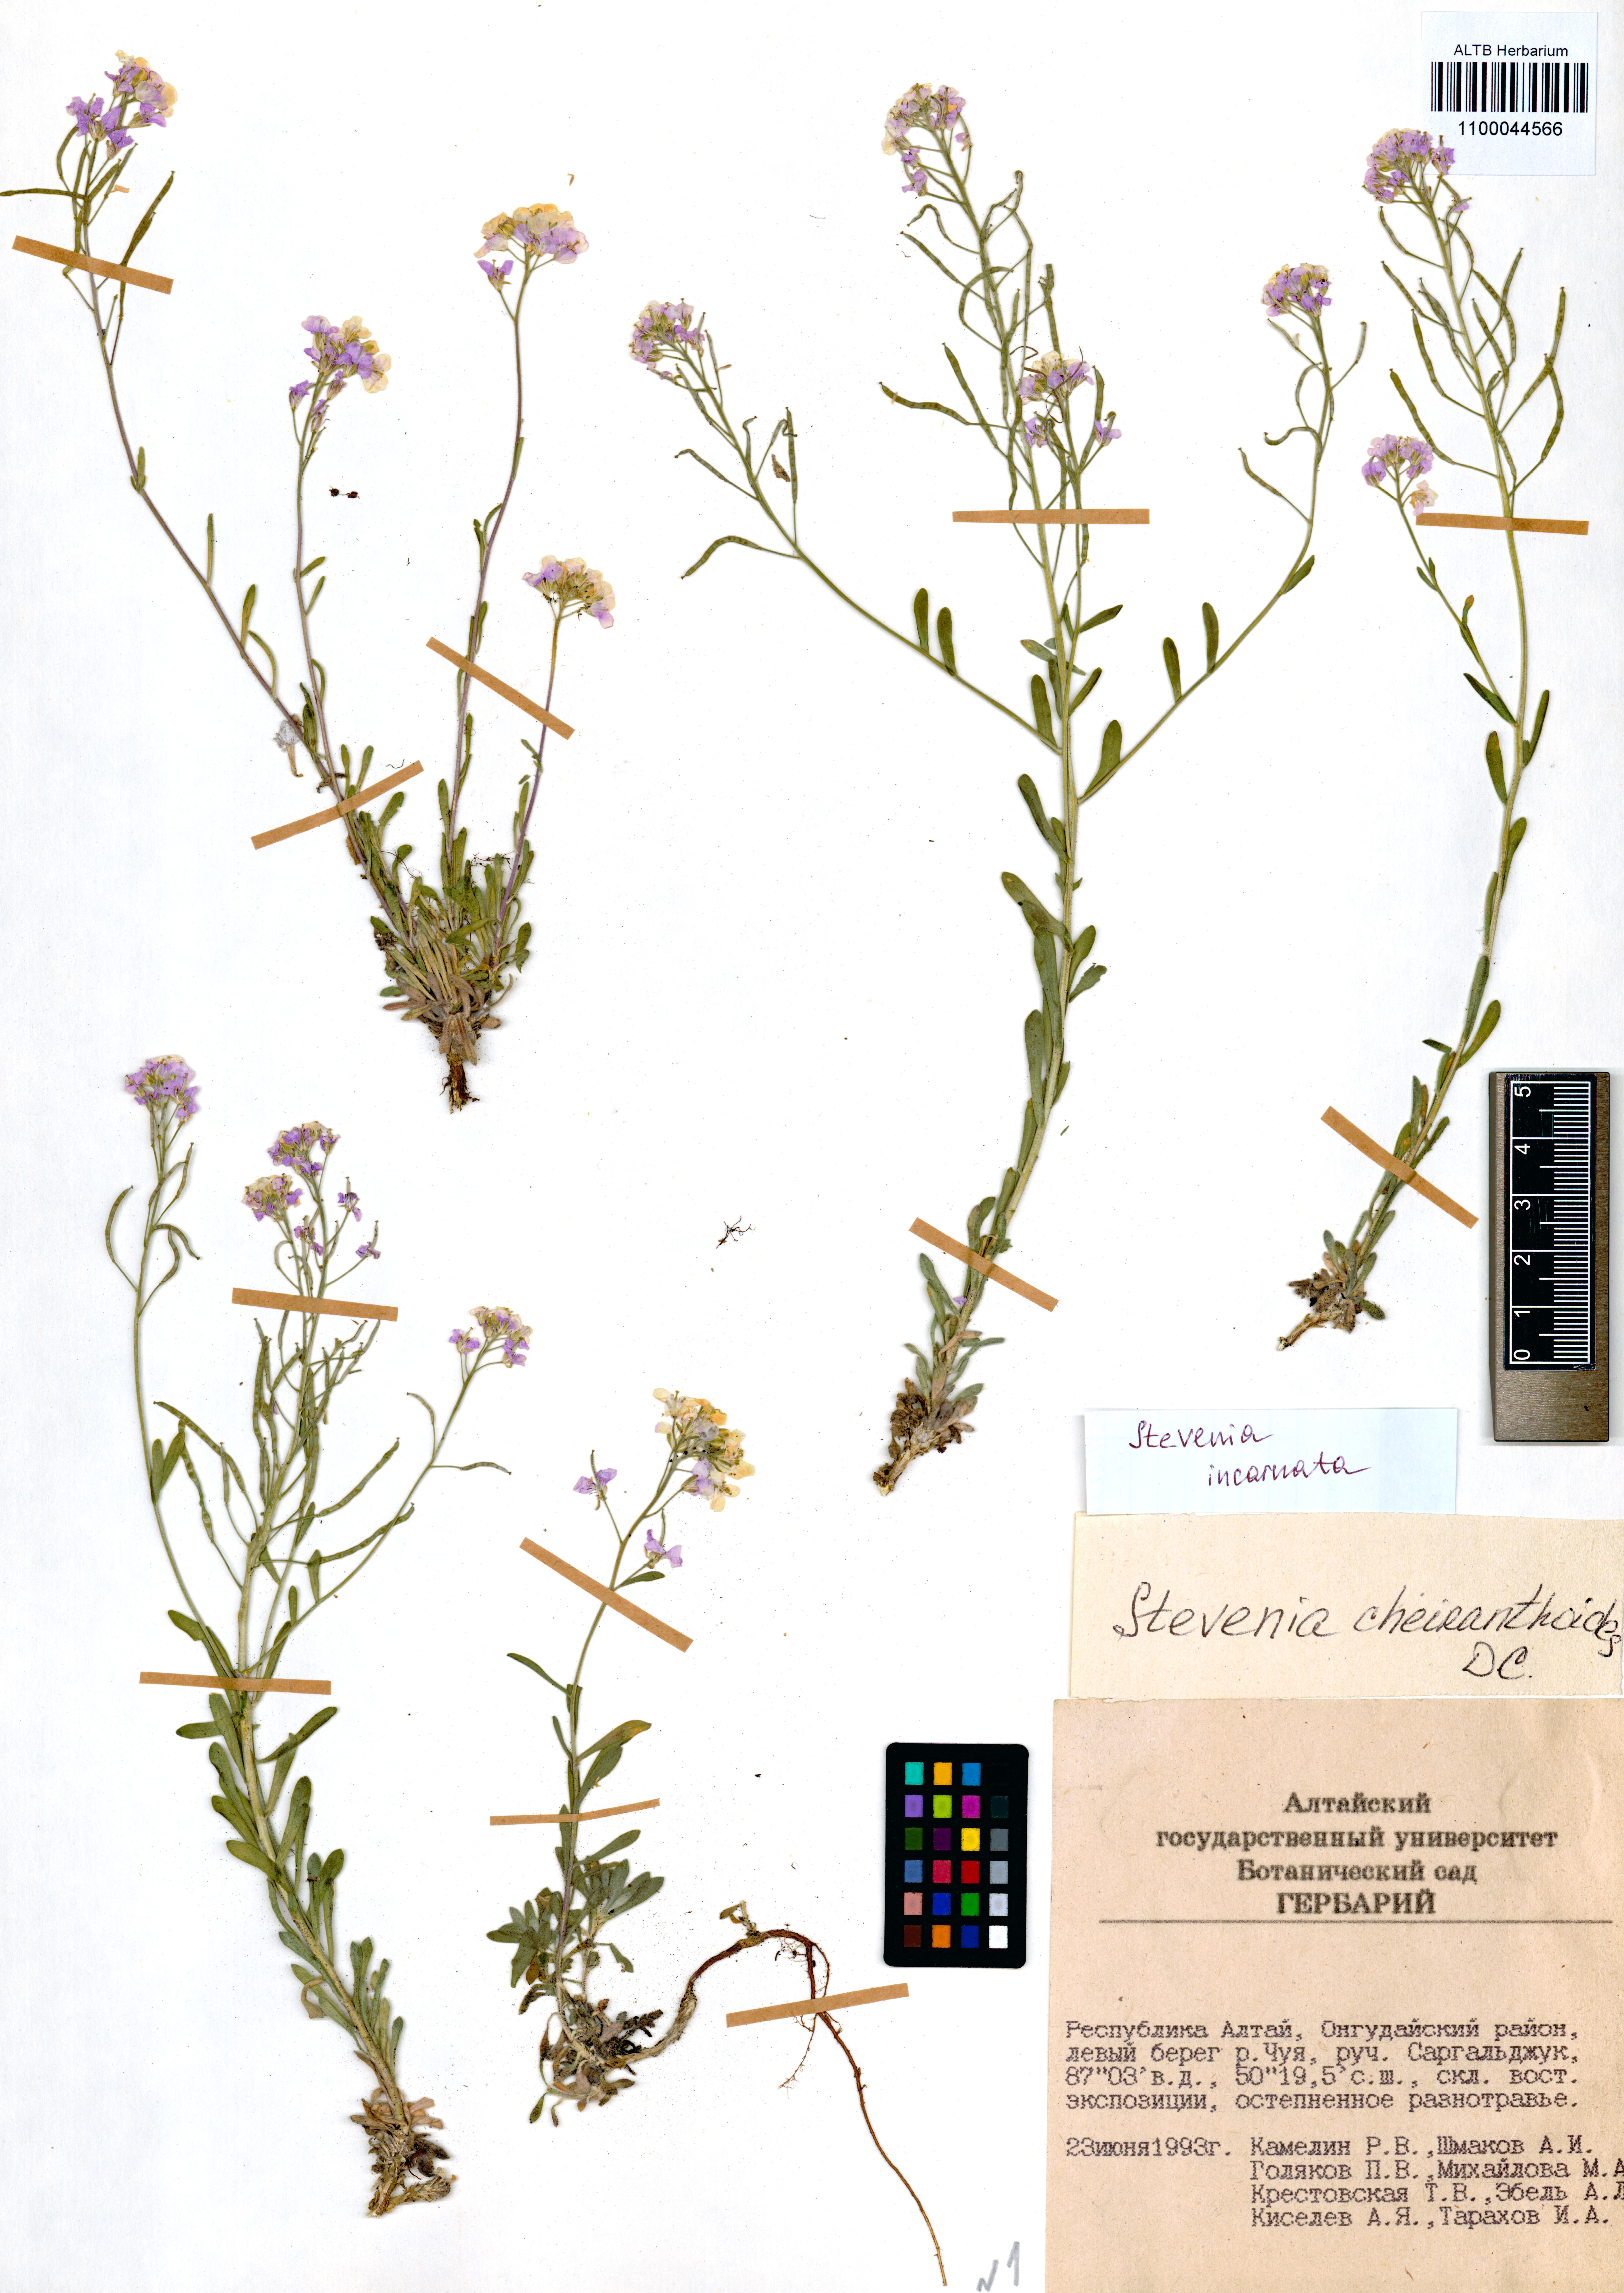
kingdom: Plantae
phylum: Tracheophyta
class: Magnoliopsida
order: Brassicales
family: Brassicaceae
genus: Stevenia
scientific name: Stevenia incarnata
